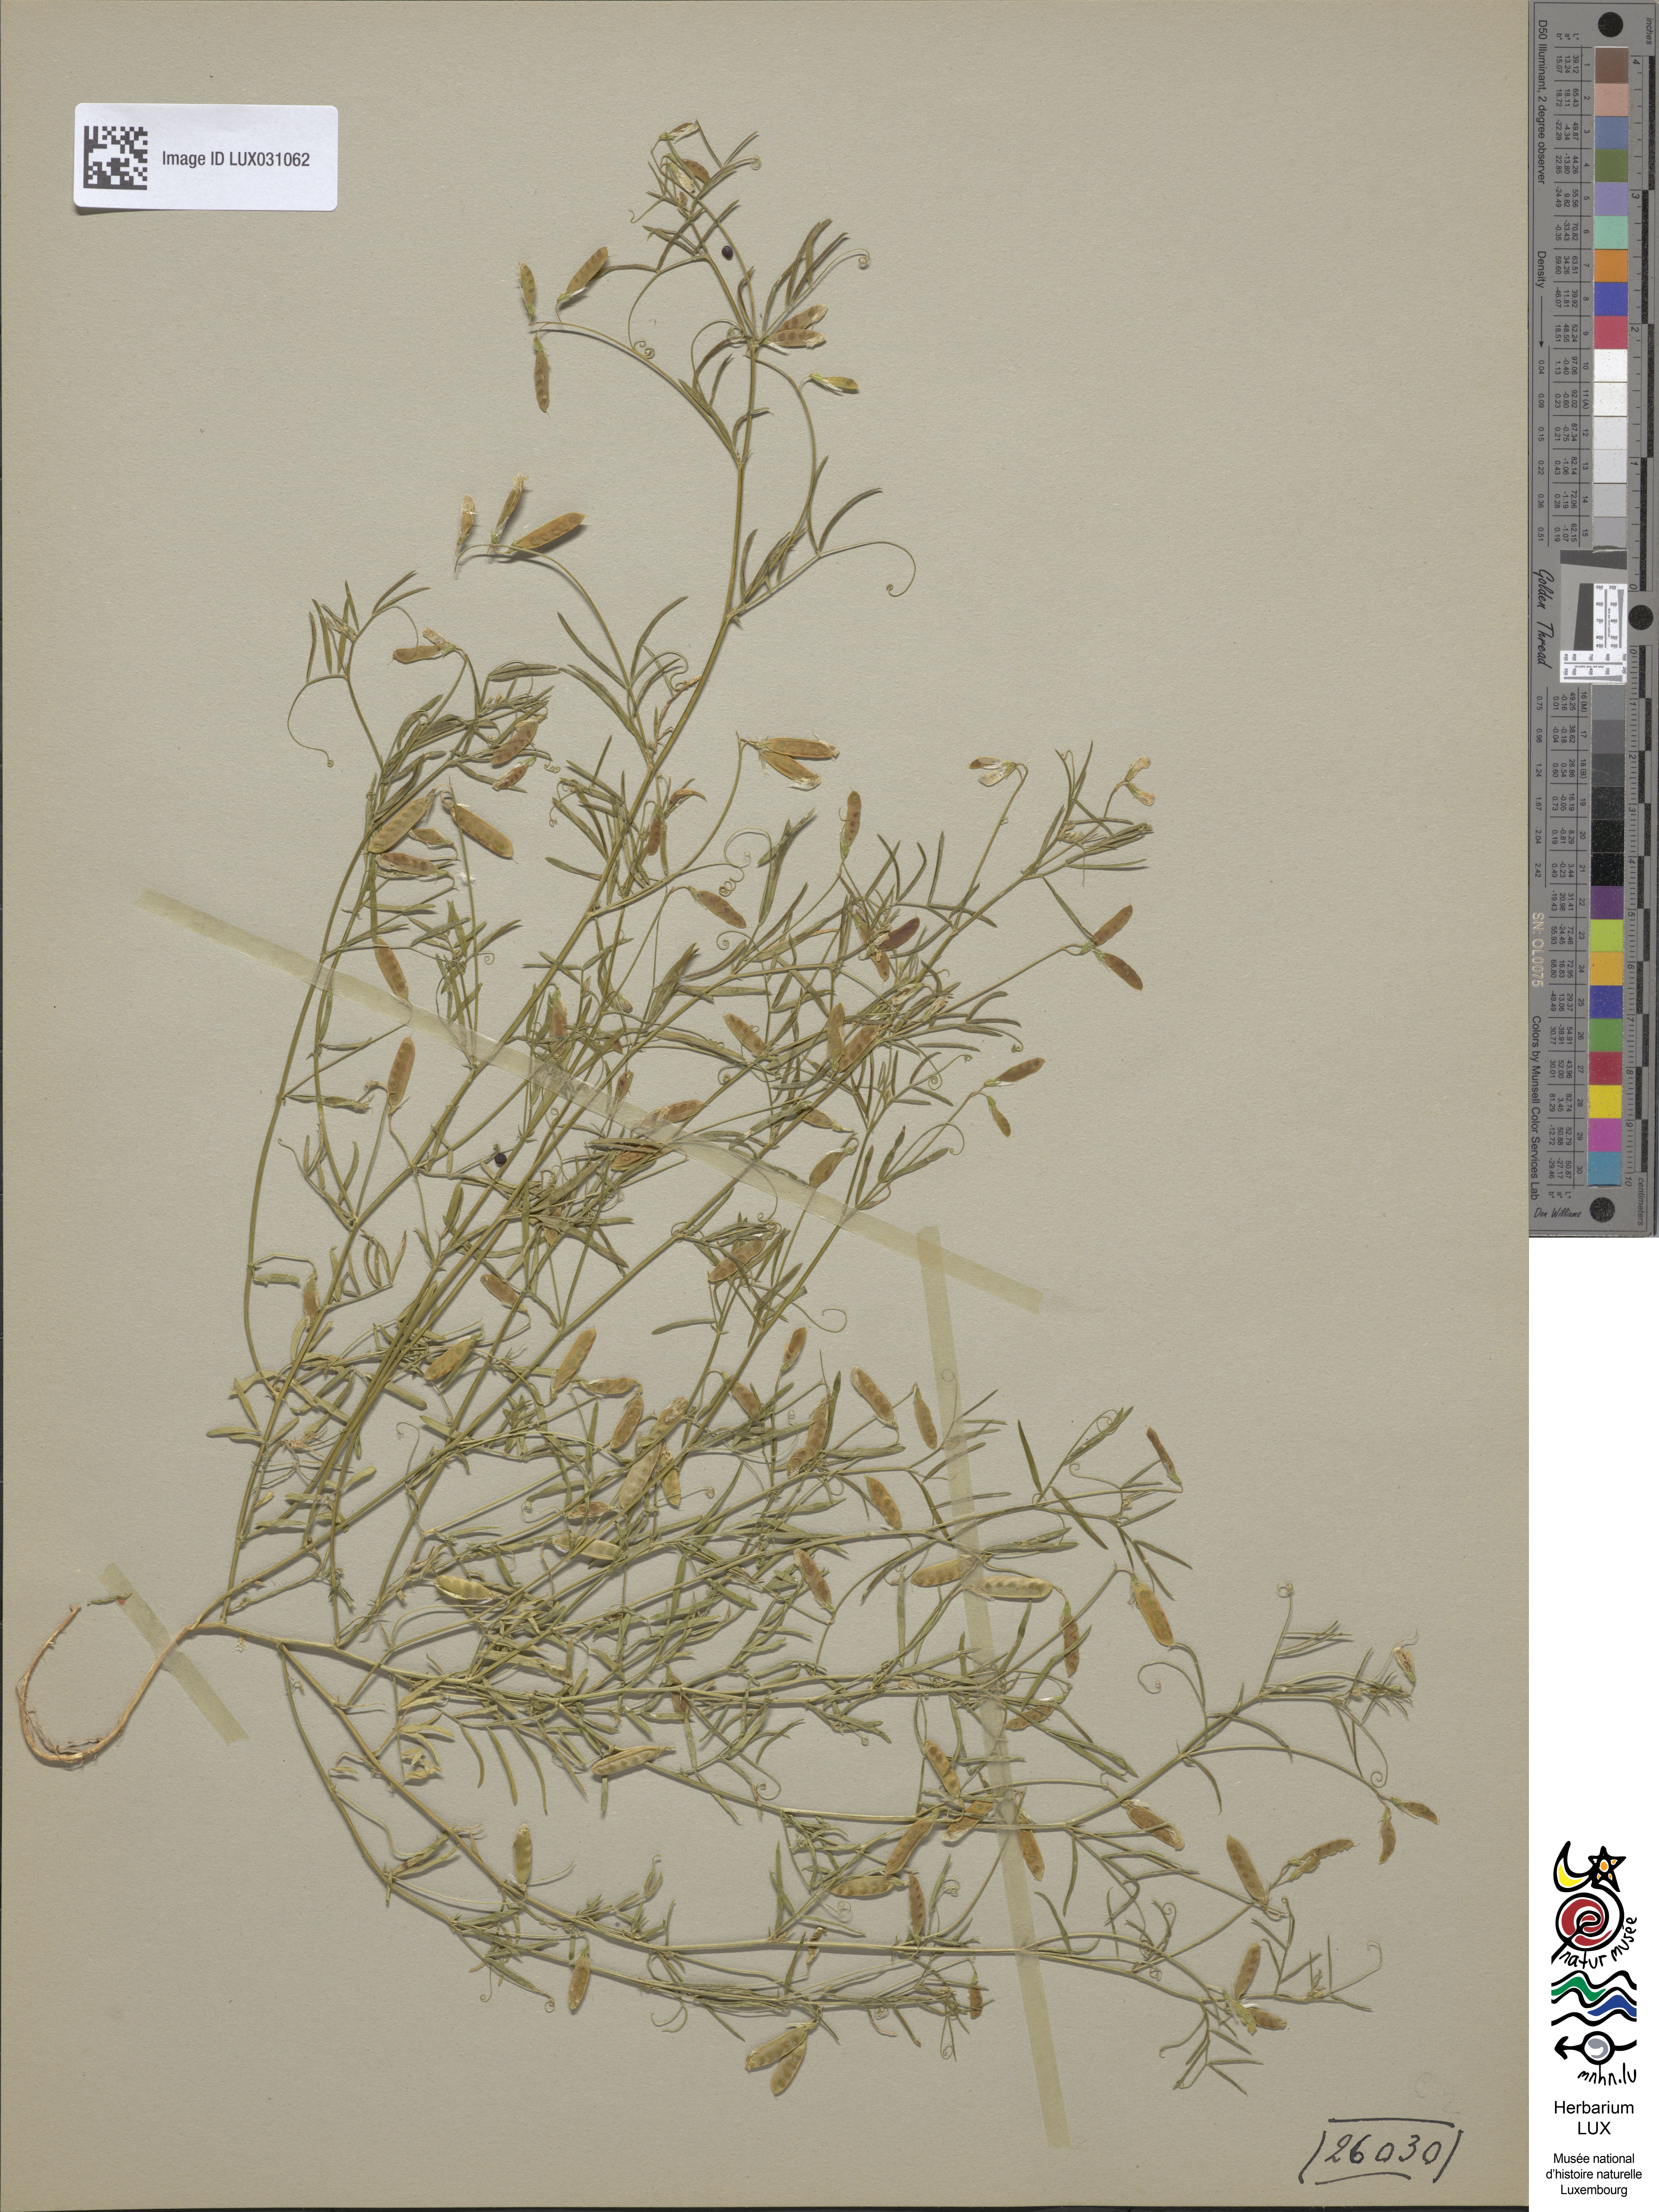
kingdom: Plantae
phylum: Tracheophyta
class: Magnoliopsida
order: Fabales
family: Fabaceae
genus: Vicia
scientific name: Vicia parviflora
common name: Slender tare
